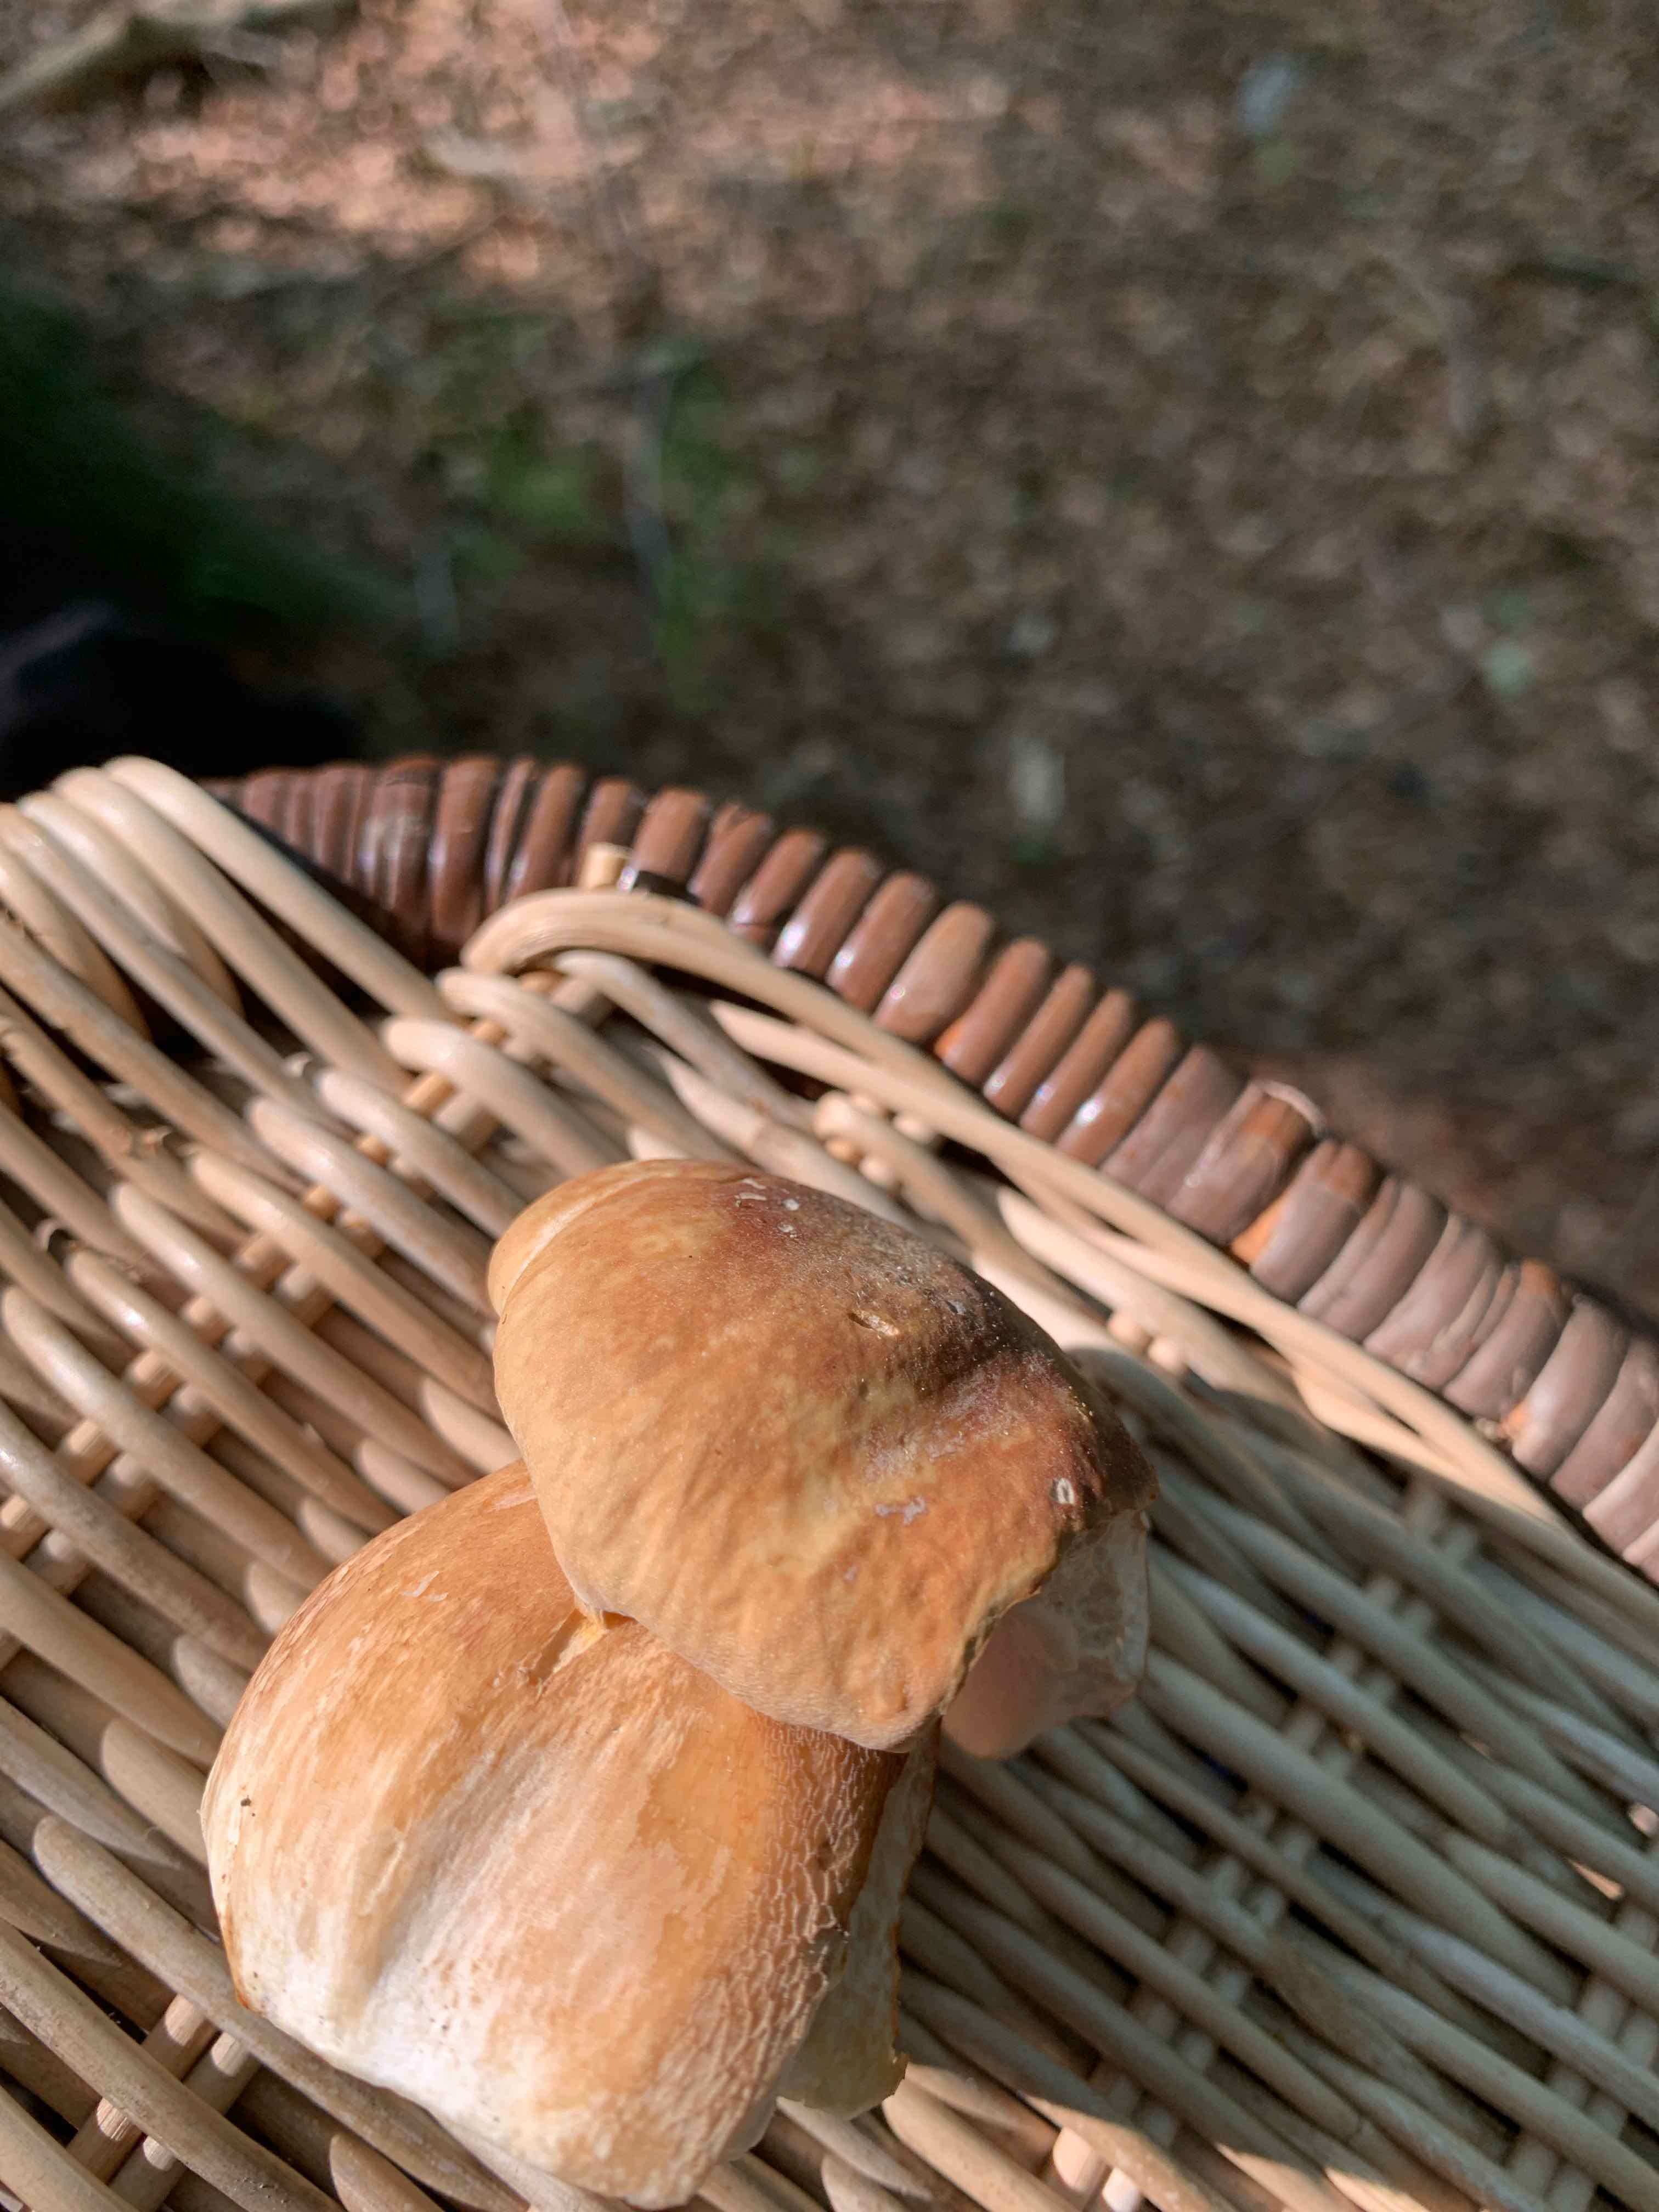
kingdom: Fungi
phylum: Basidiomycota
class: Agaricomycetes
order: Boletales
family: Boletaceae
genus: Boletus
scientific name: Boletus reticulatus
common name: sommer-rørhat
